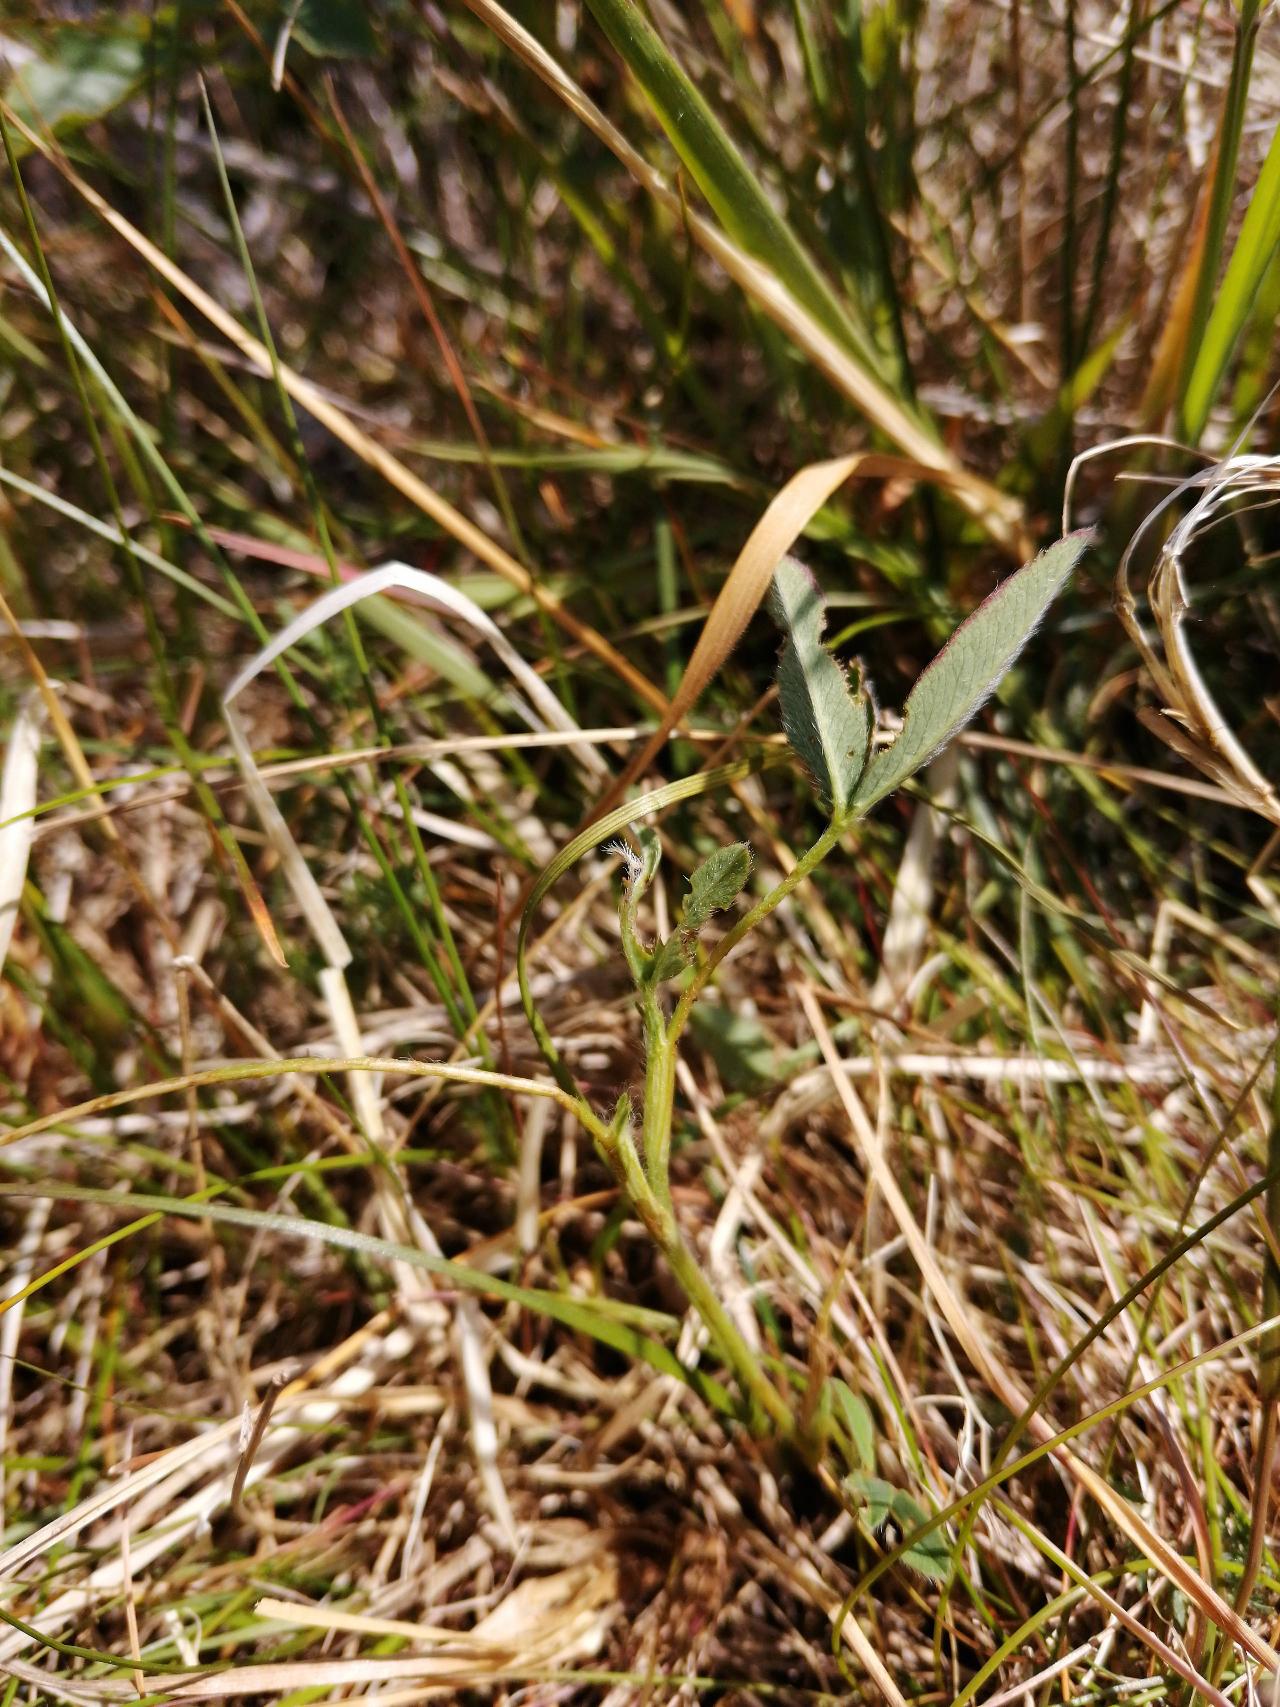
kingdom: Plantae
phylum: Tracheophyta
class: Magnoliopsida
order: Fabales
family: Fabaceae
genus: Trifolium
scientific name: Trifolium medium
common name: Bugtet kløver
